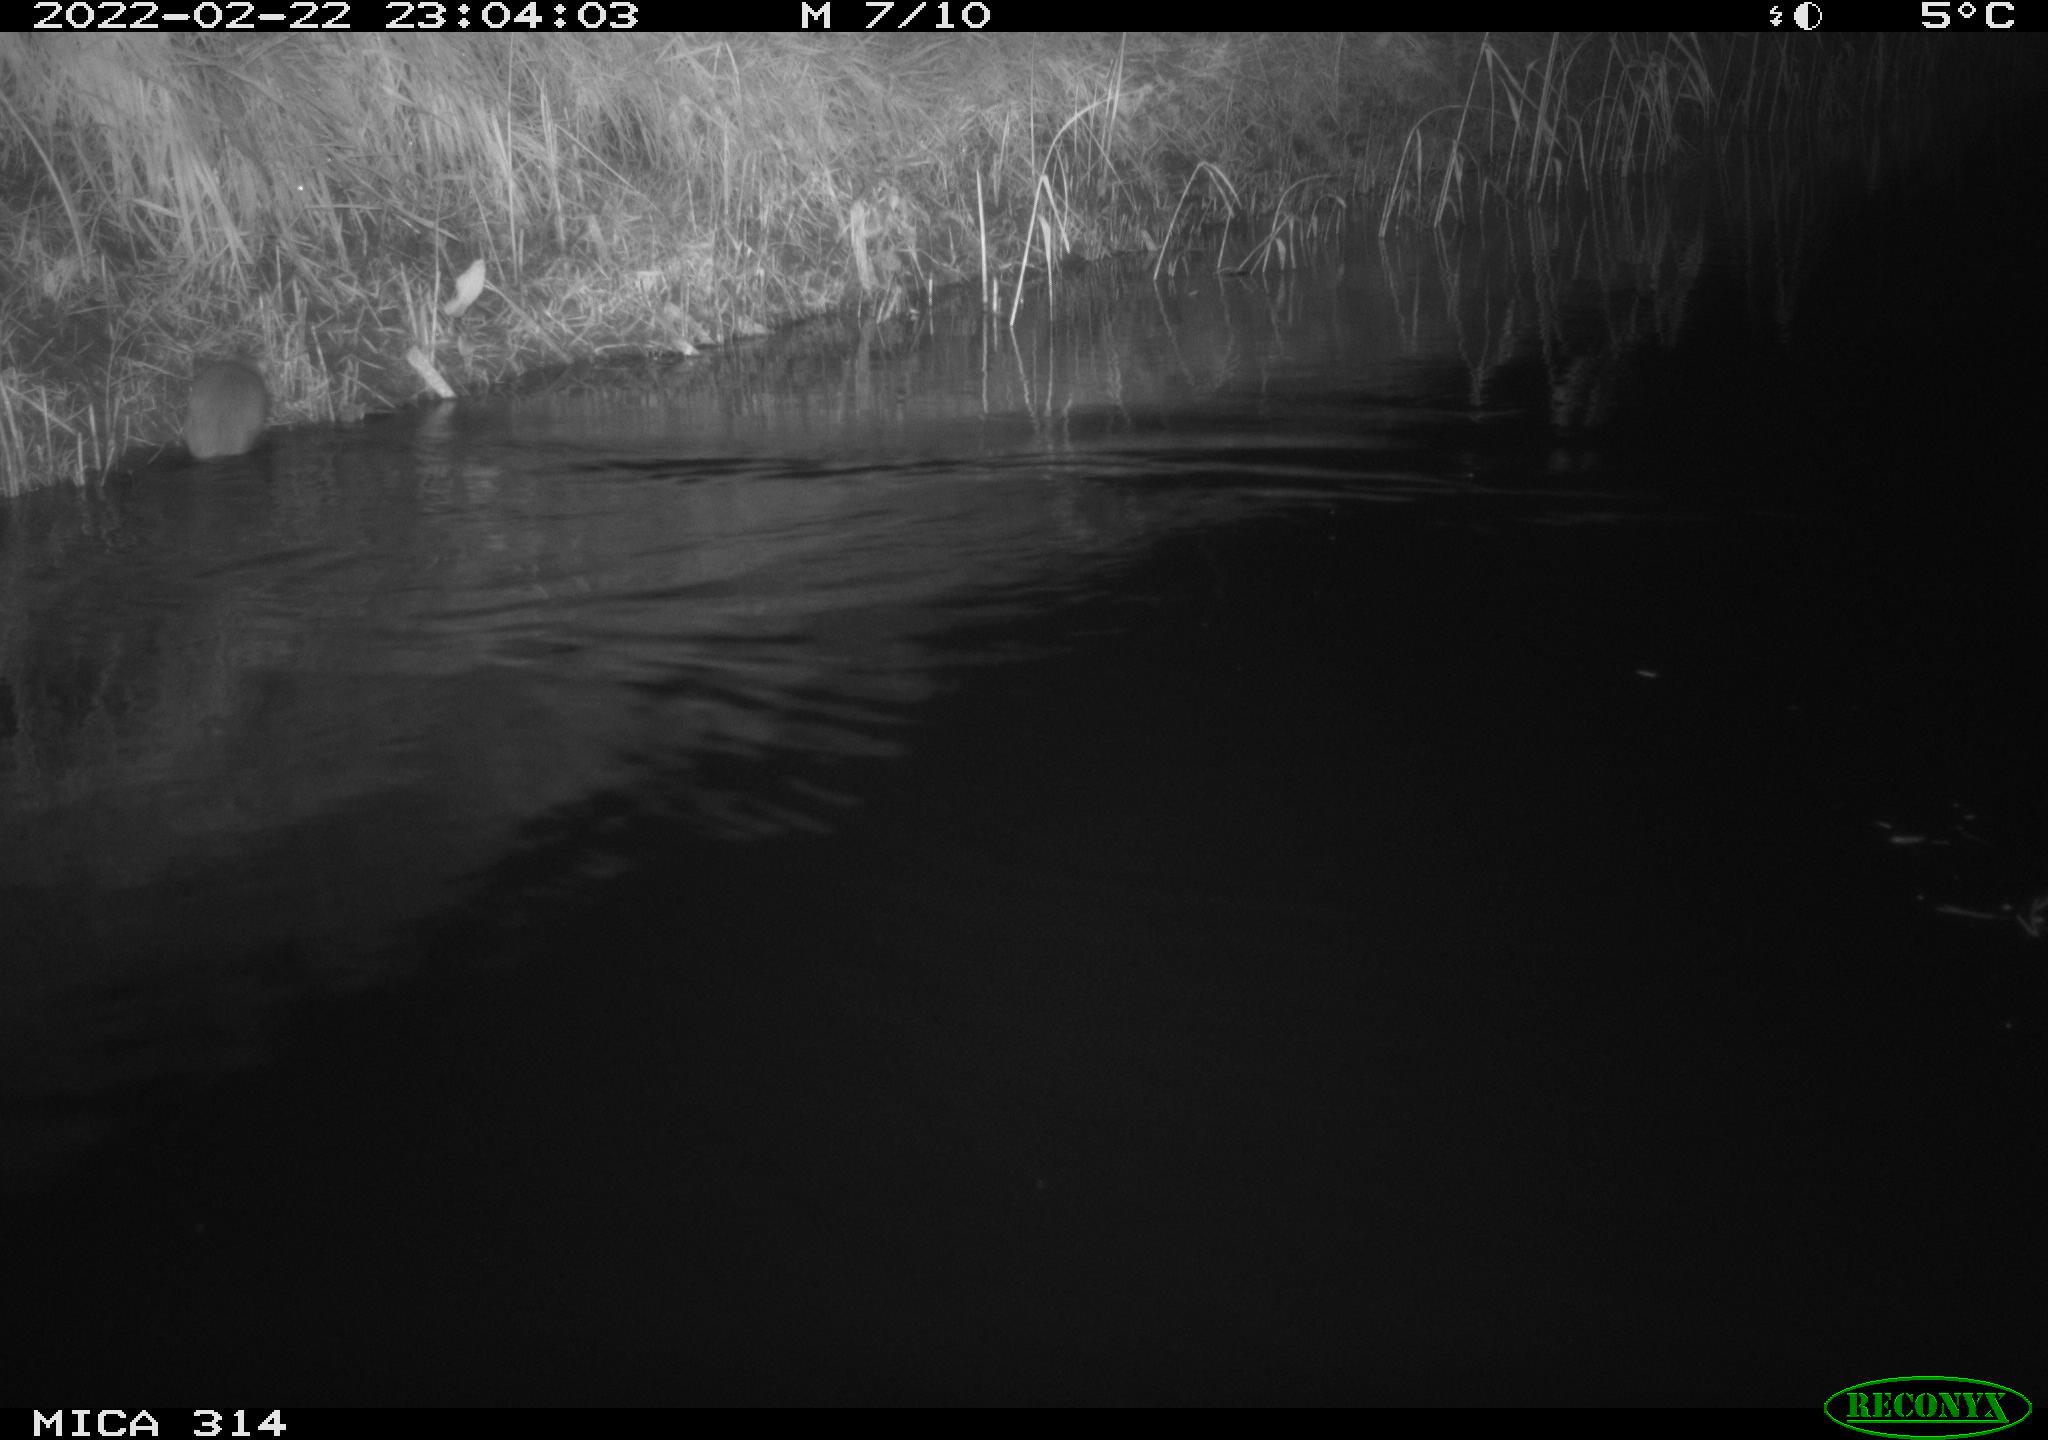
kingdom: Animalia
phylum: Chordata
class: Mammalia
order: Rodentia
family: Muridae
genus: Rattus
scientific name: Rattus norvegicus
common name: Brown rat
